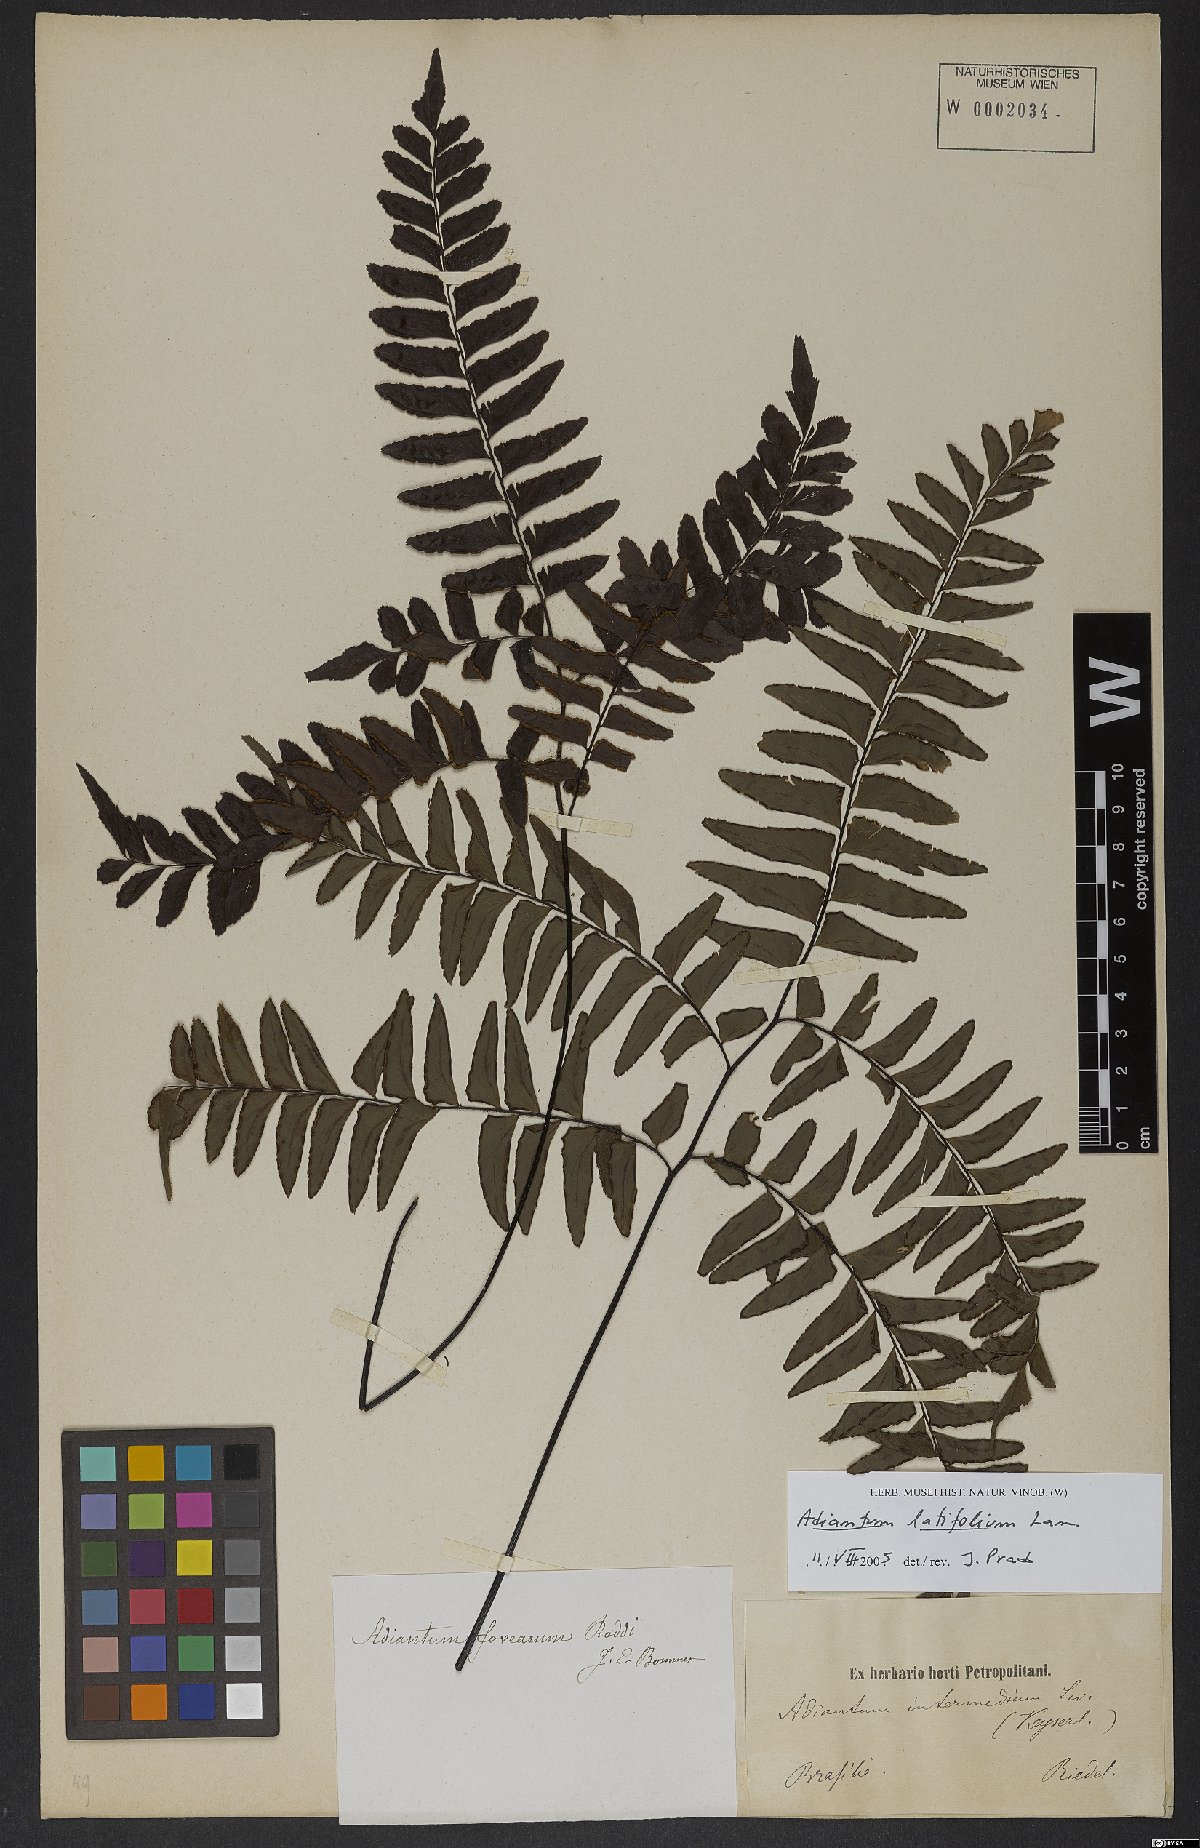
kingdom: Plantae
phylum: Tracheophyta
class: Polypodiopsida
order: Polypodiales
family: Pteridaceae
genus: Adiantum
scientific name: Adiantum latifolium
